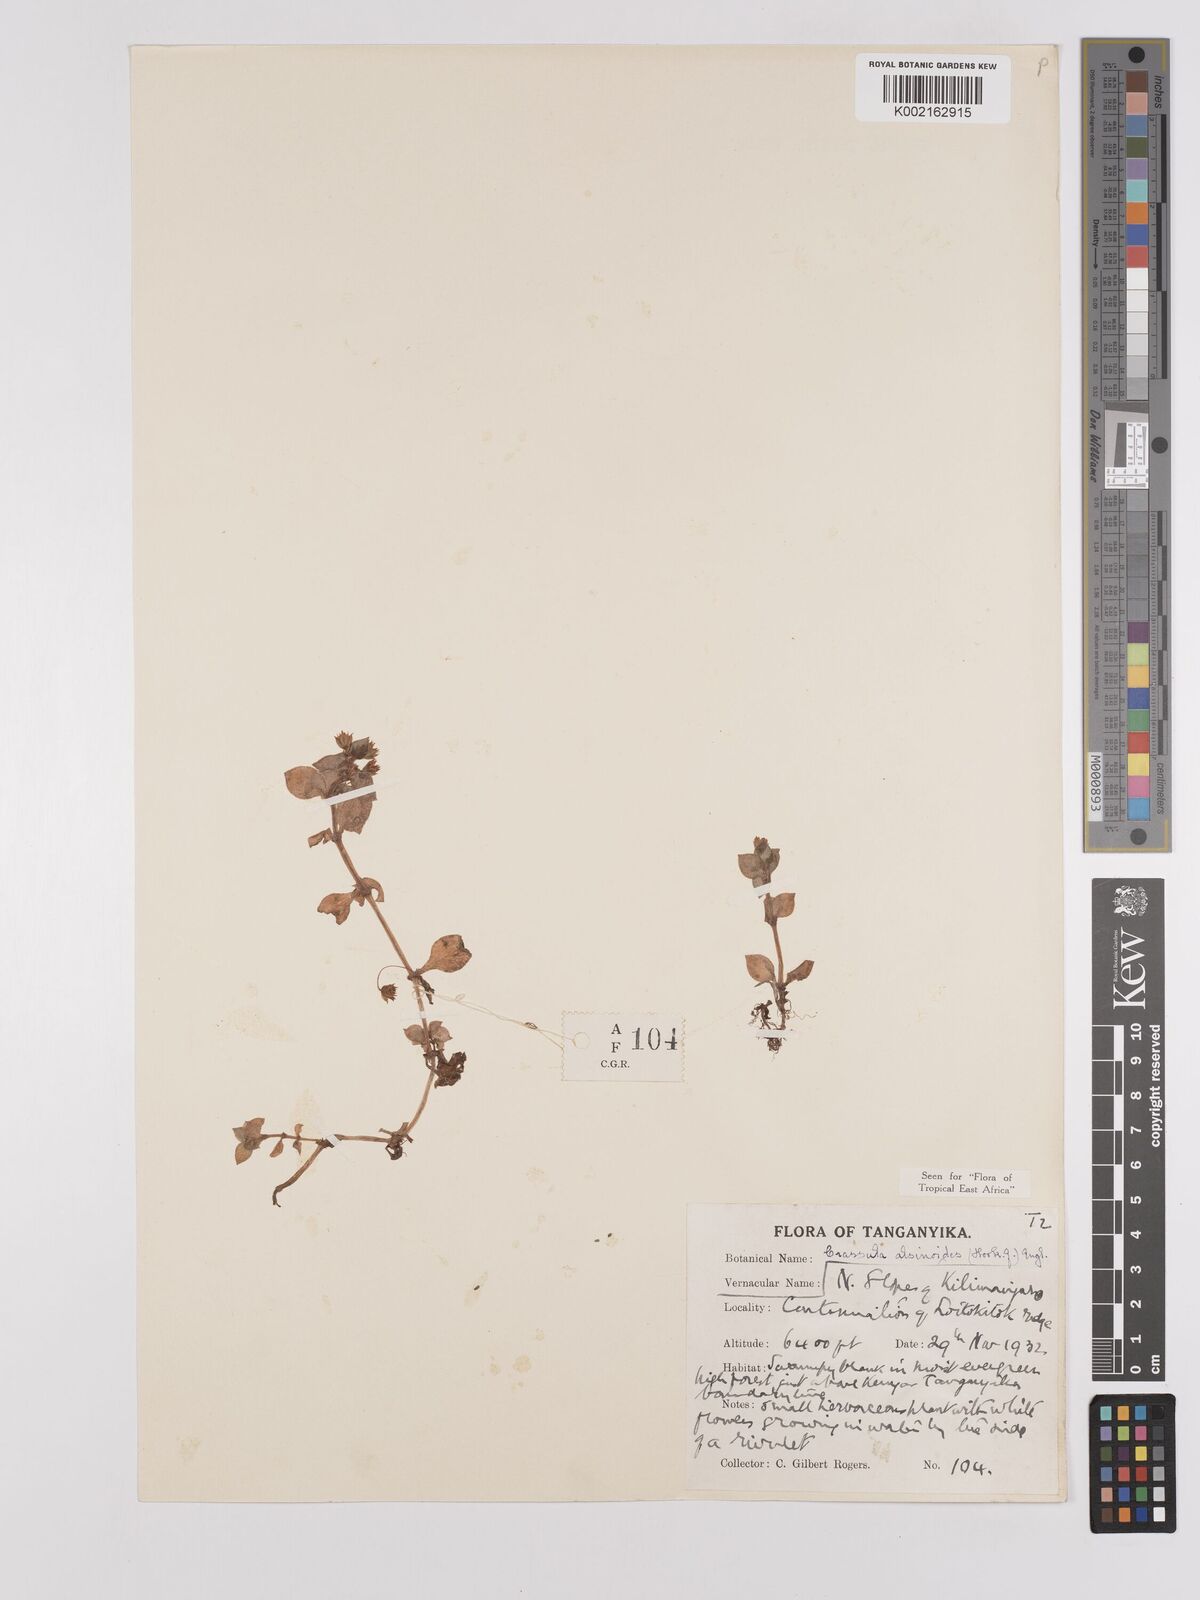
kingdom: Plantae
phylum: Tracheophyta
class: Magnoliopsida
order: Saxifragales
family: Crassulaceae
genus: Crassula
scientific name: Crassula alsinoides
